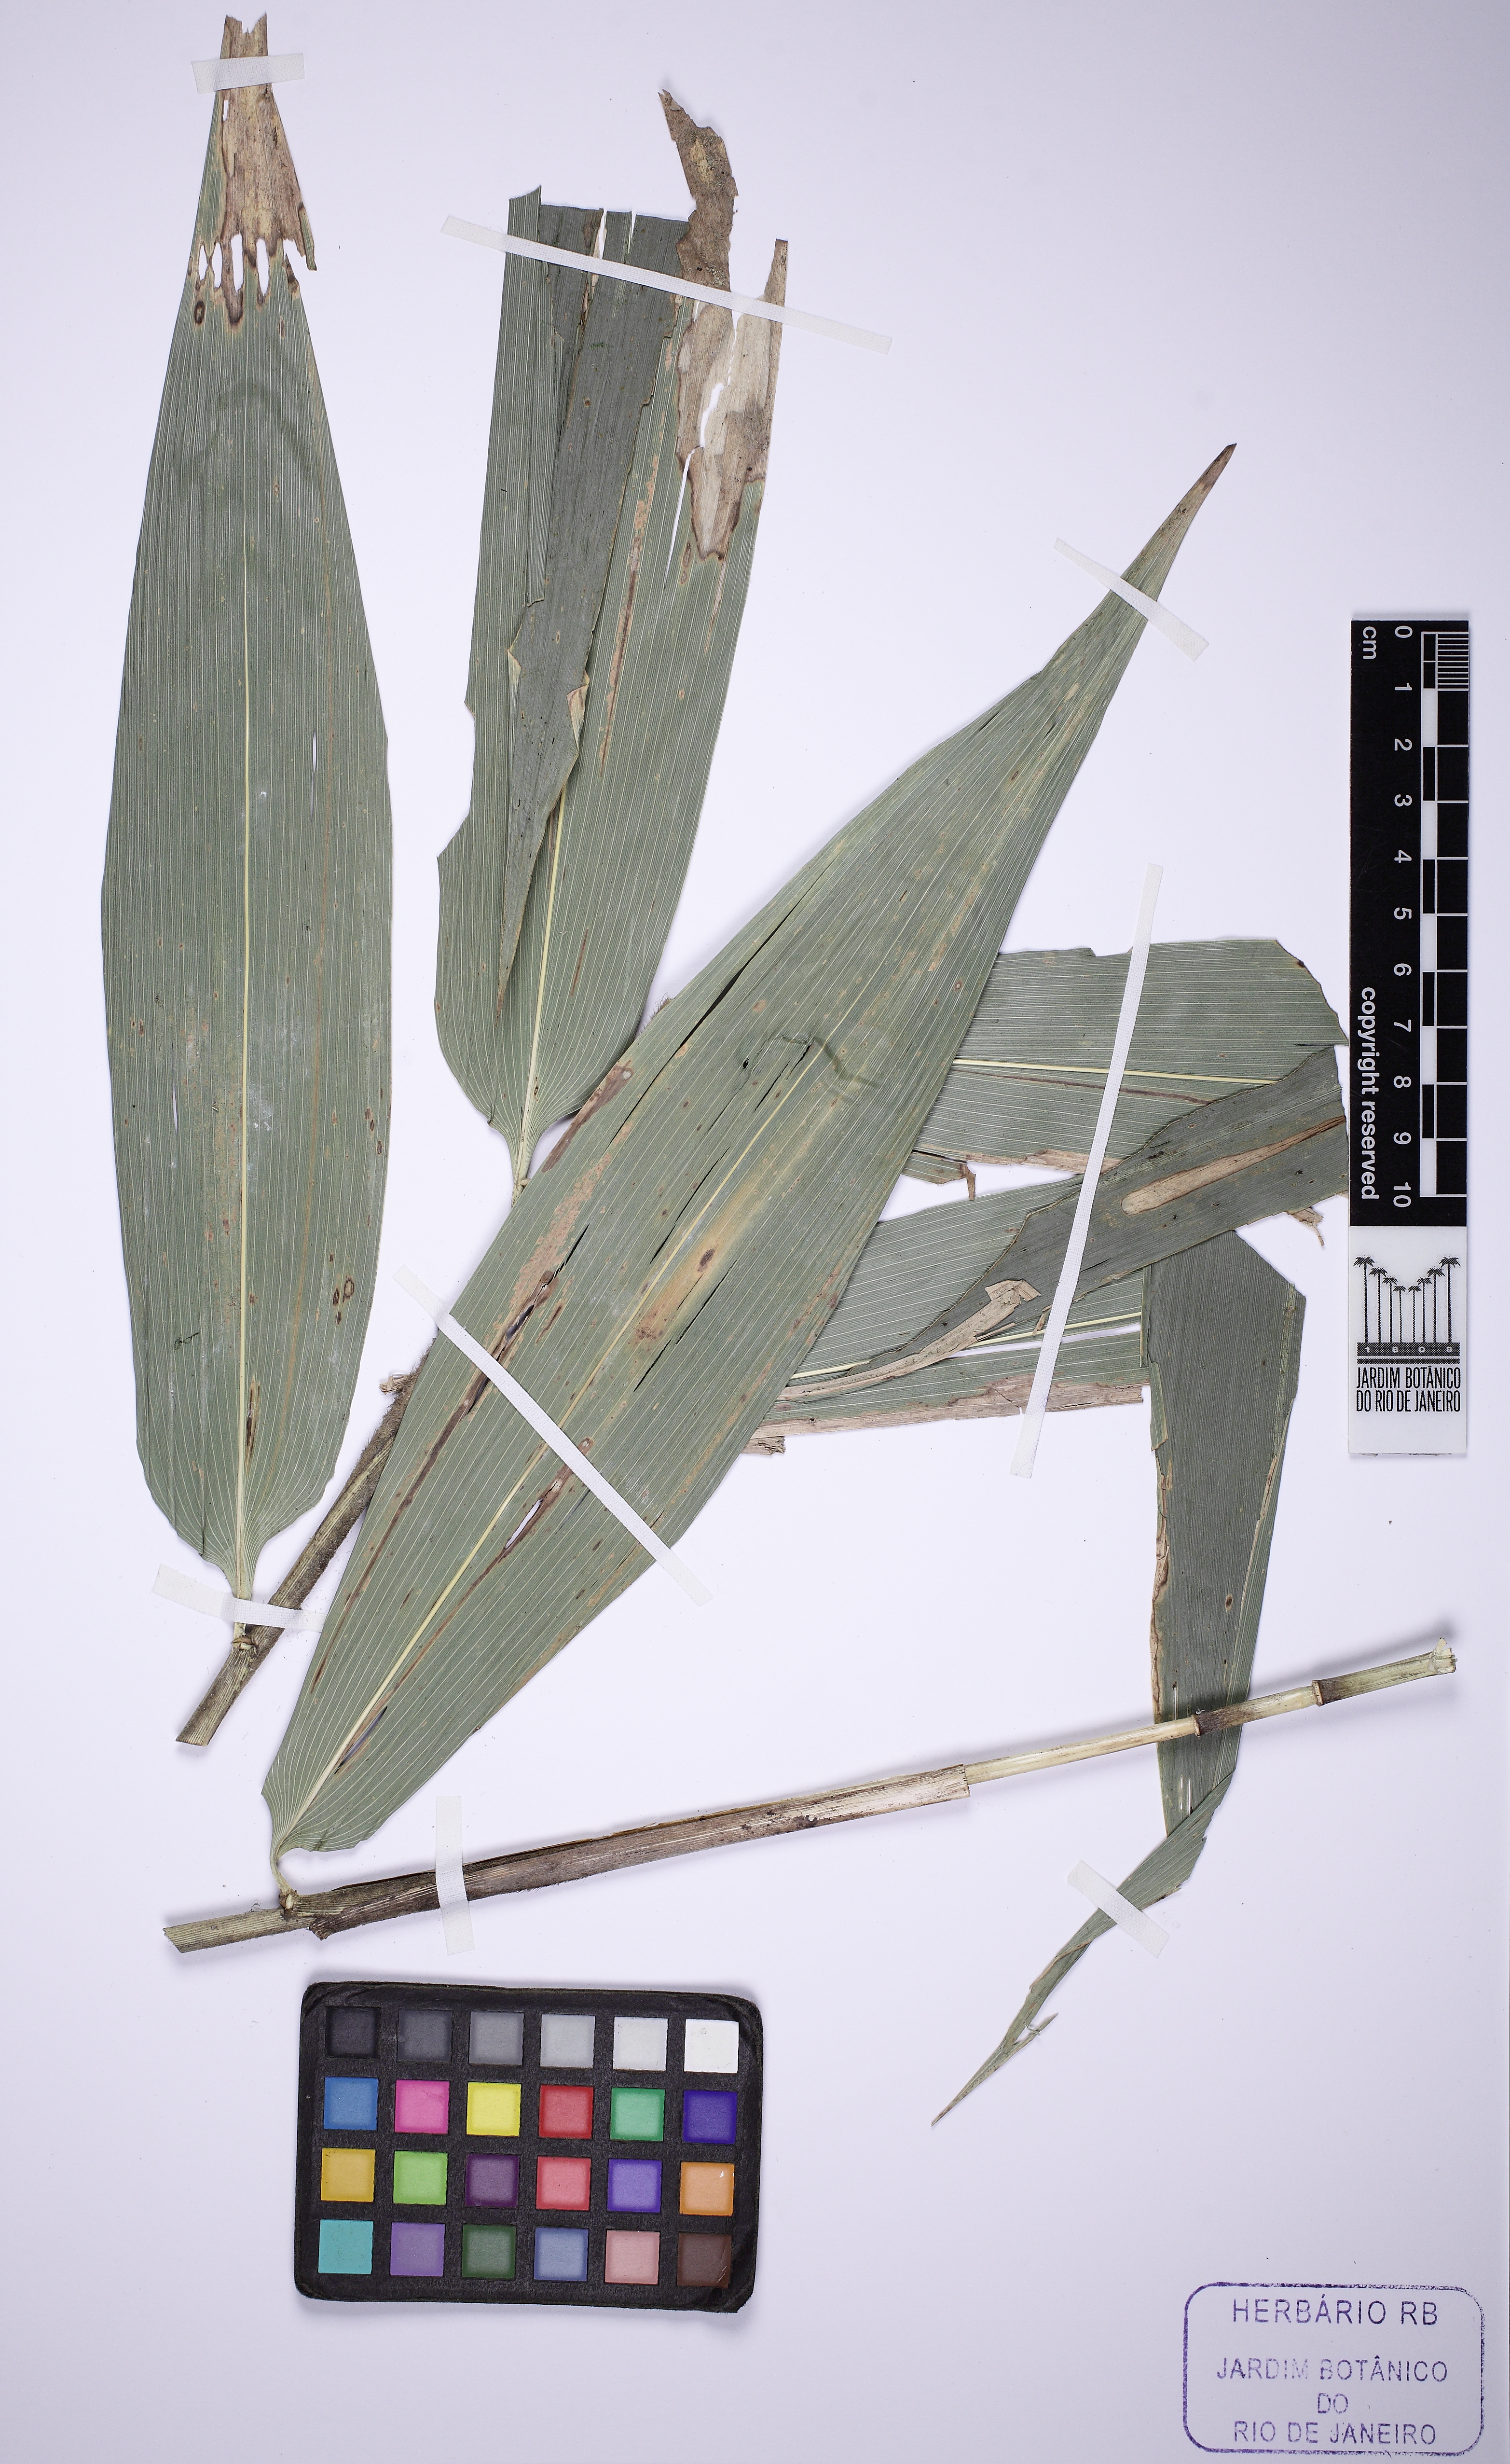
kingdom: Plantae
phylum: Tracheophyta
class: Liliopsida
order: Poales
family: Poaceae
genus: Guadua
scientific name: Guadua tagoara
